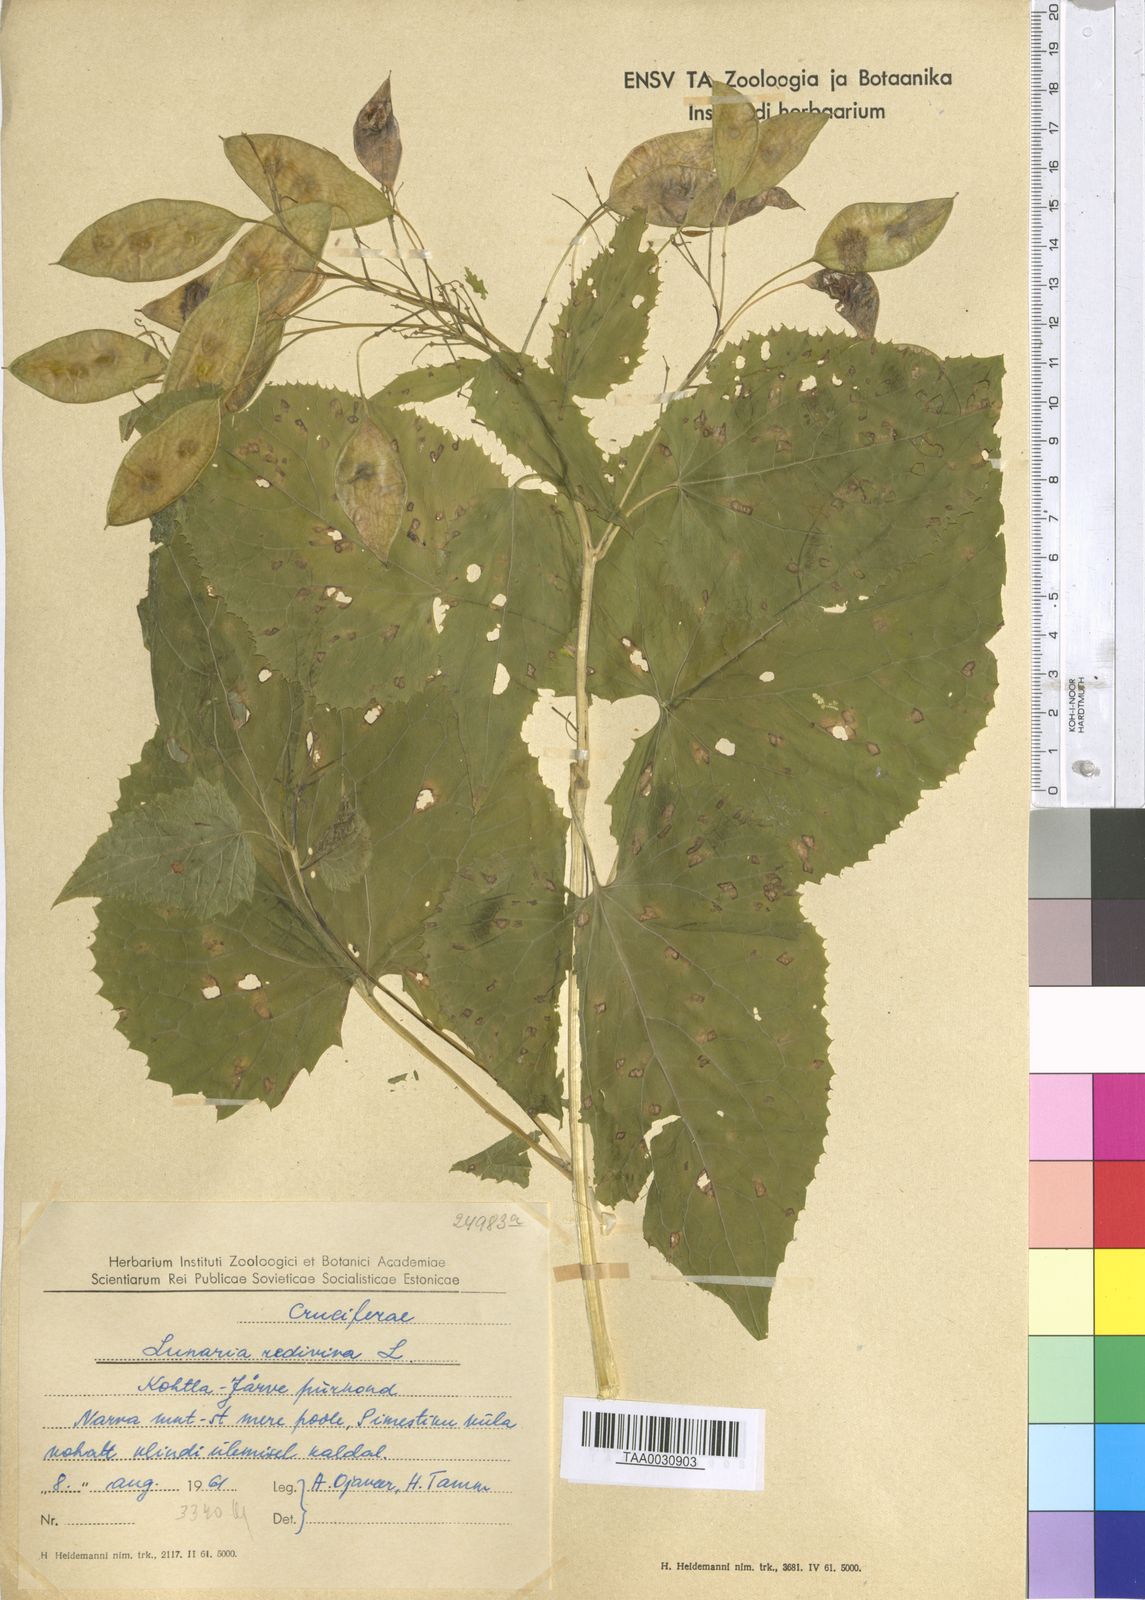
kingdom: Plantae
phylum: Tracheophyta
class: Magnoliopsida
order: Brassicales
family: Brassicaceae
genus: Lunaria
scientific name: Lunaria rediviva
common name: Perennial honesty
